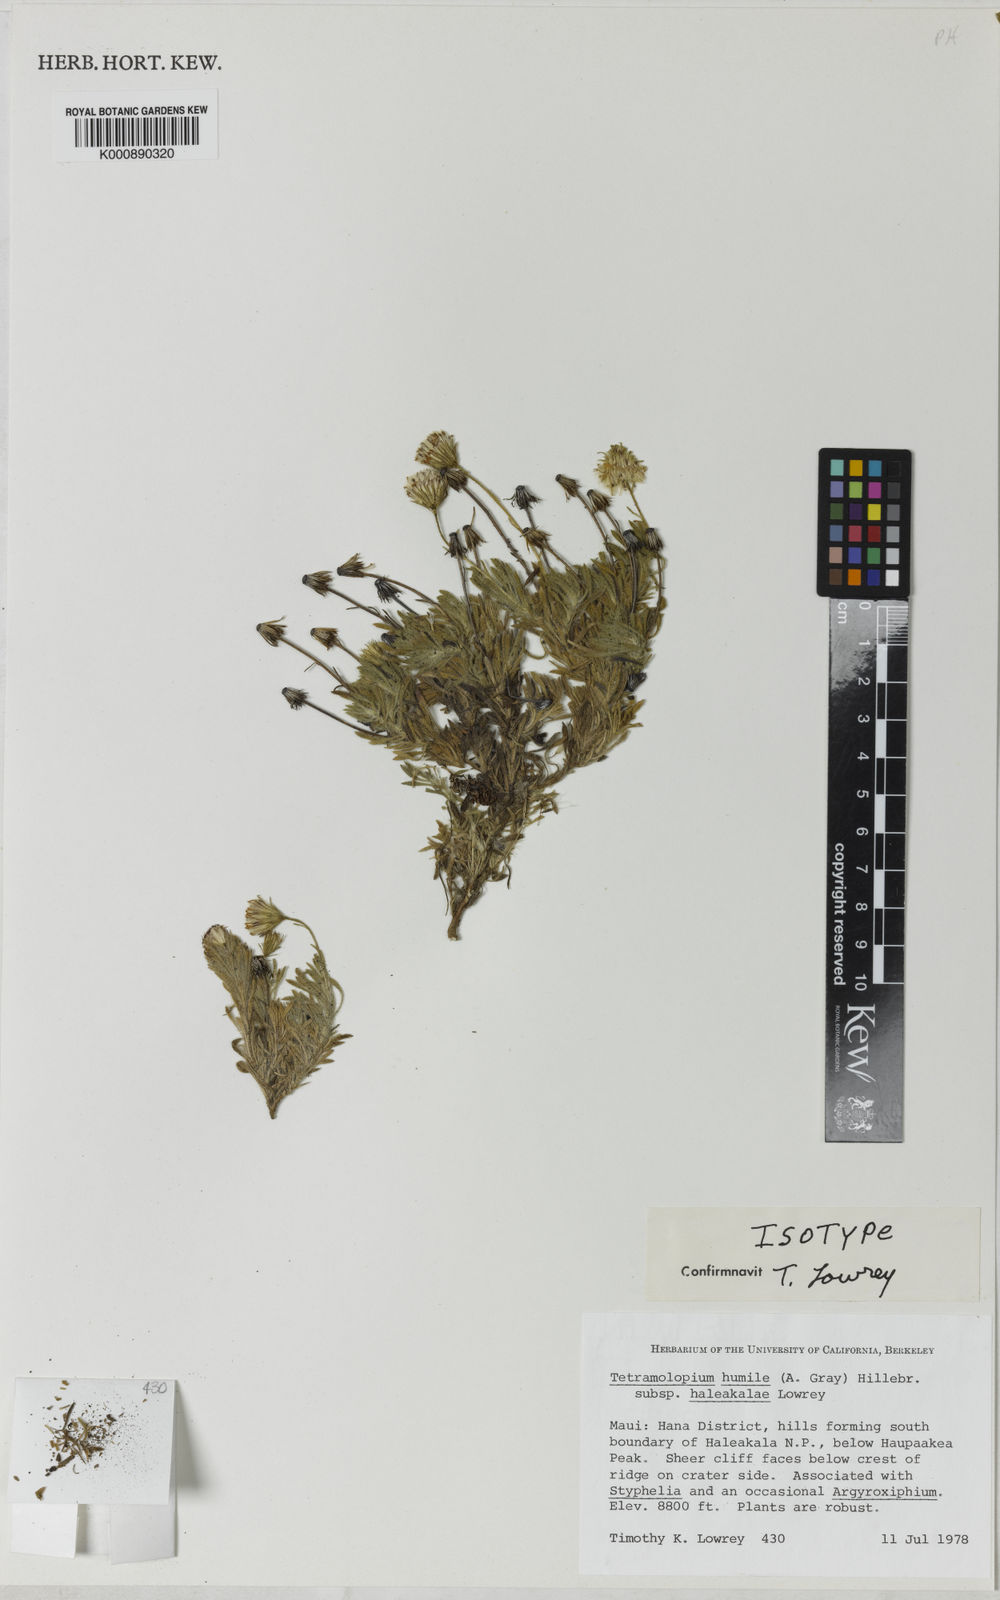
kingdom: Plantae
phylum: Tracheophyta
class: Magnoliopsida
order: Asterales
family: Asteraceae
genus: Tetramolopium
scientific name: Tetramolopium humile
